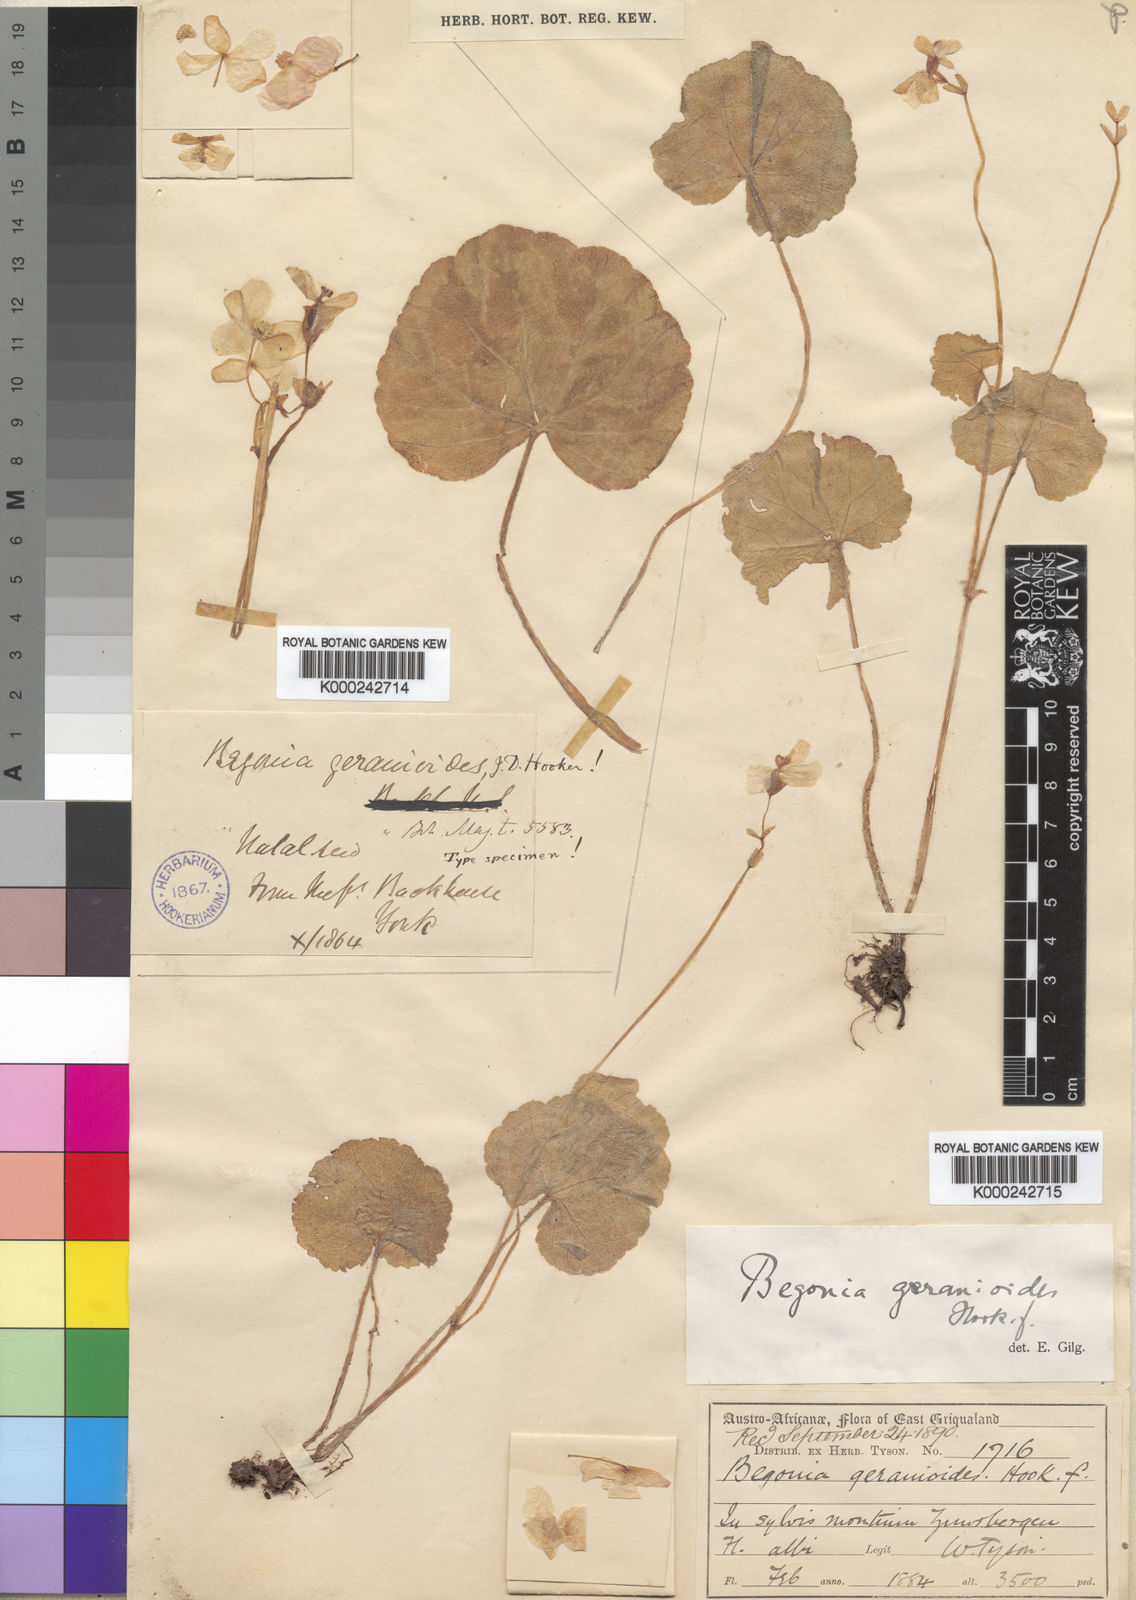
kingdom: Plantae
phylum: Tracheophyta
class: Magnoliopsida
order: Cucurbitales
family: Begoniaceae
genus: Begonia
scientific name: Begonia geranioides
